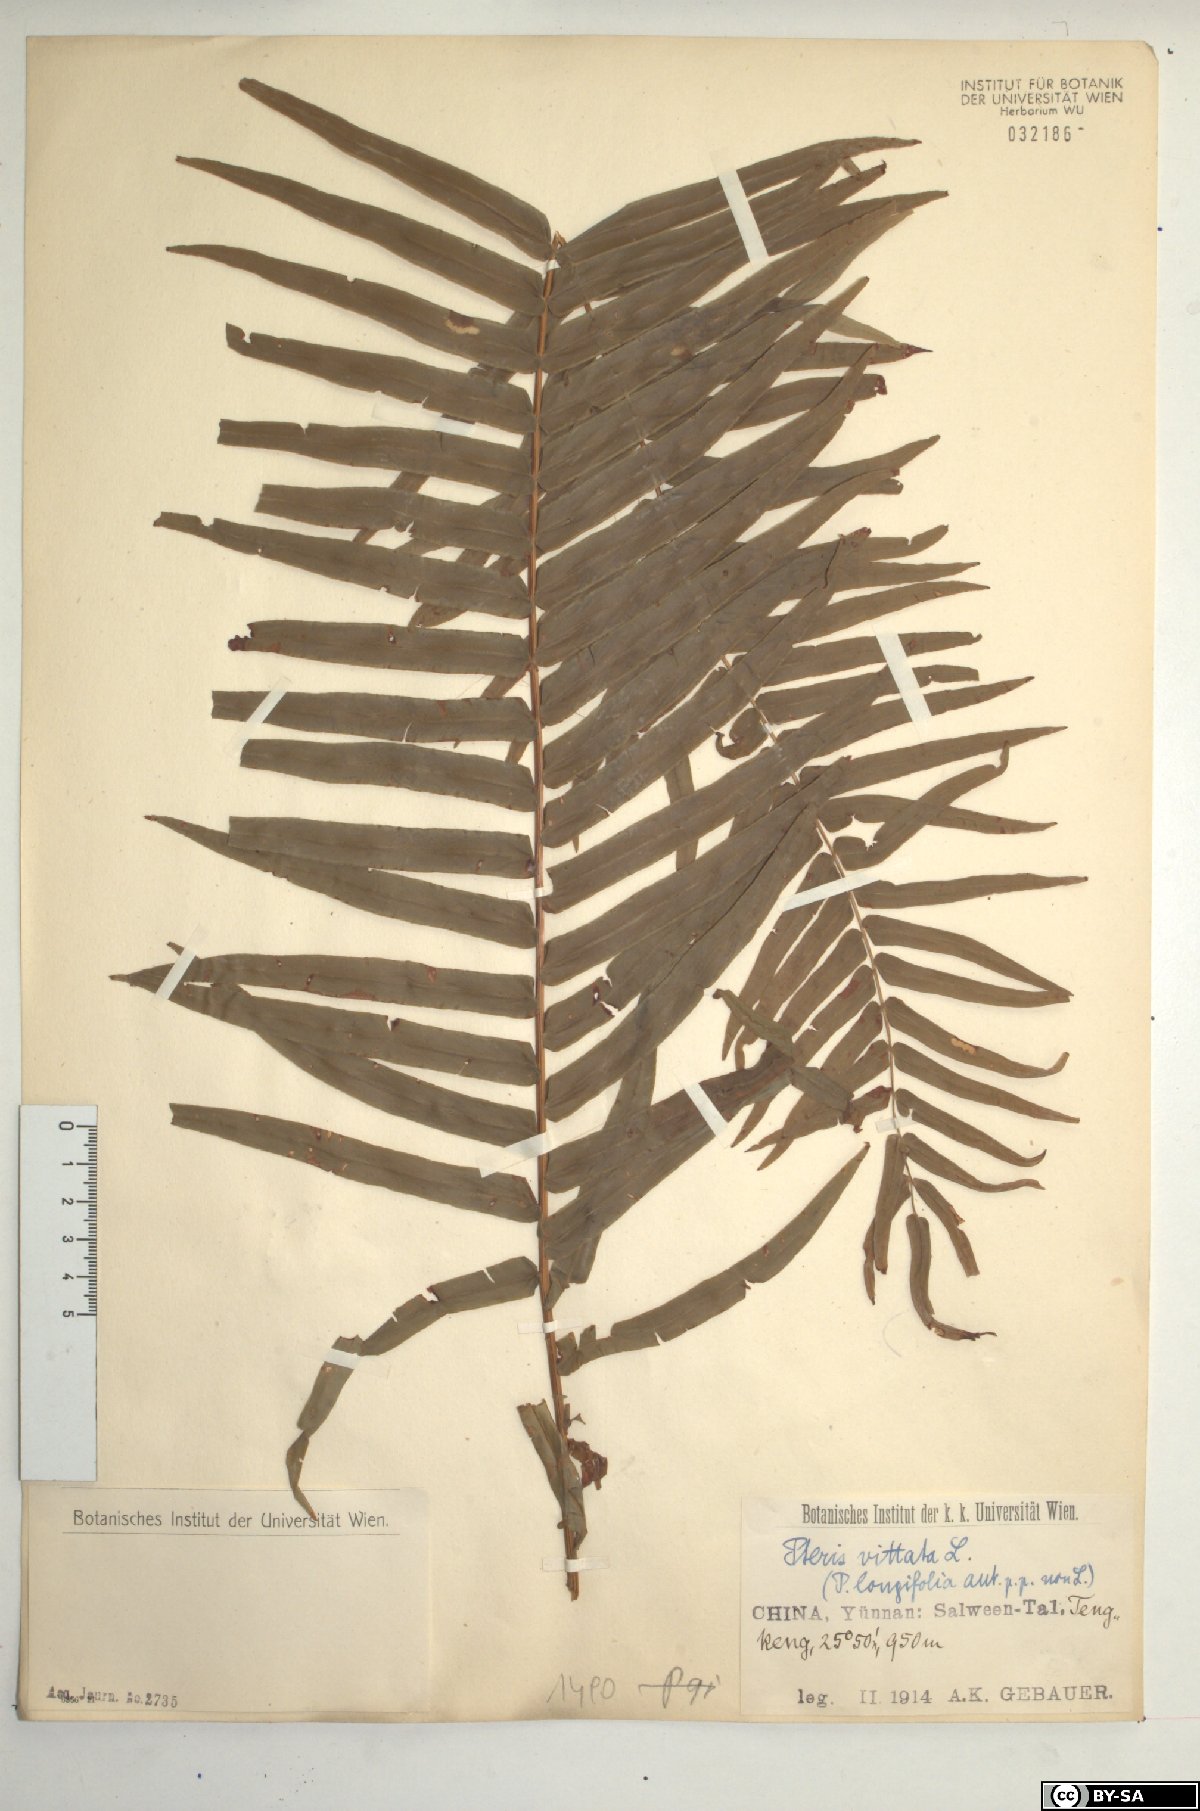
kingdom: Plantae
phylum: Tracheophyta
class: Polypodiopsida
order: Polypodiales
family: Pteridaceae
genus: Pteris
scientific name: Pteris vittata
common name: Ladder brake
